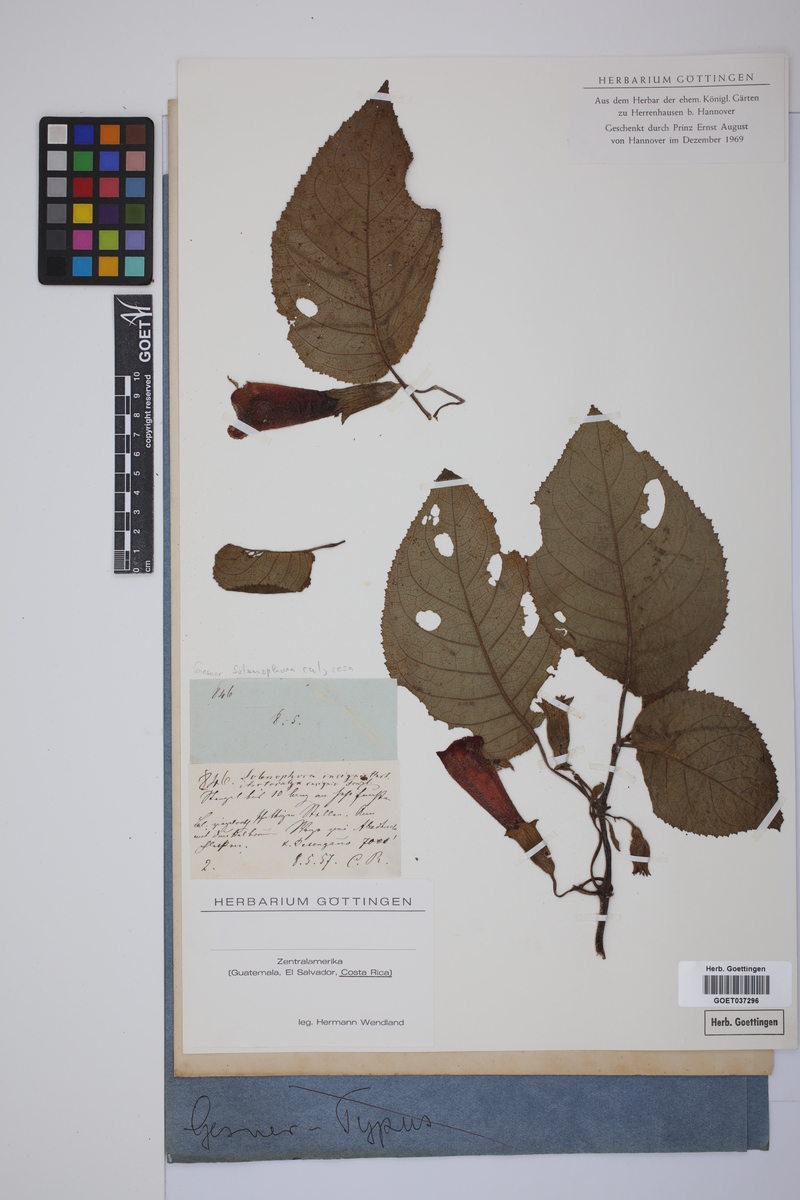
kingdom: Plantae
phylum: Tracheophyta
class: Magnoliopsida
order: Lamiales
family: Gesneriaceae
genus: Solenophora
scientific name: Solenophora calycosa
